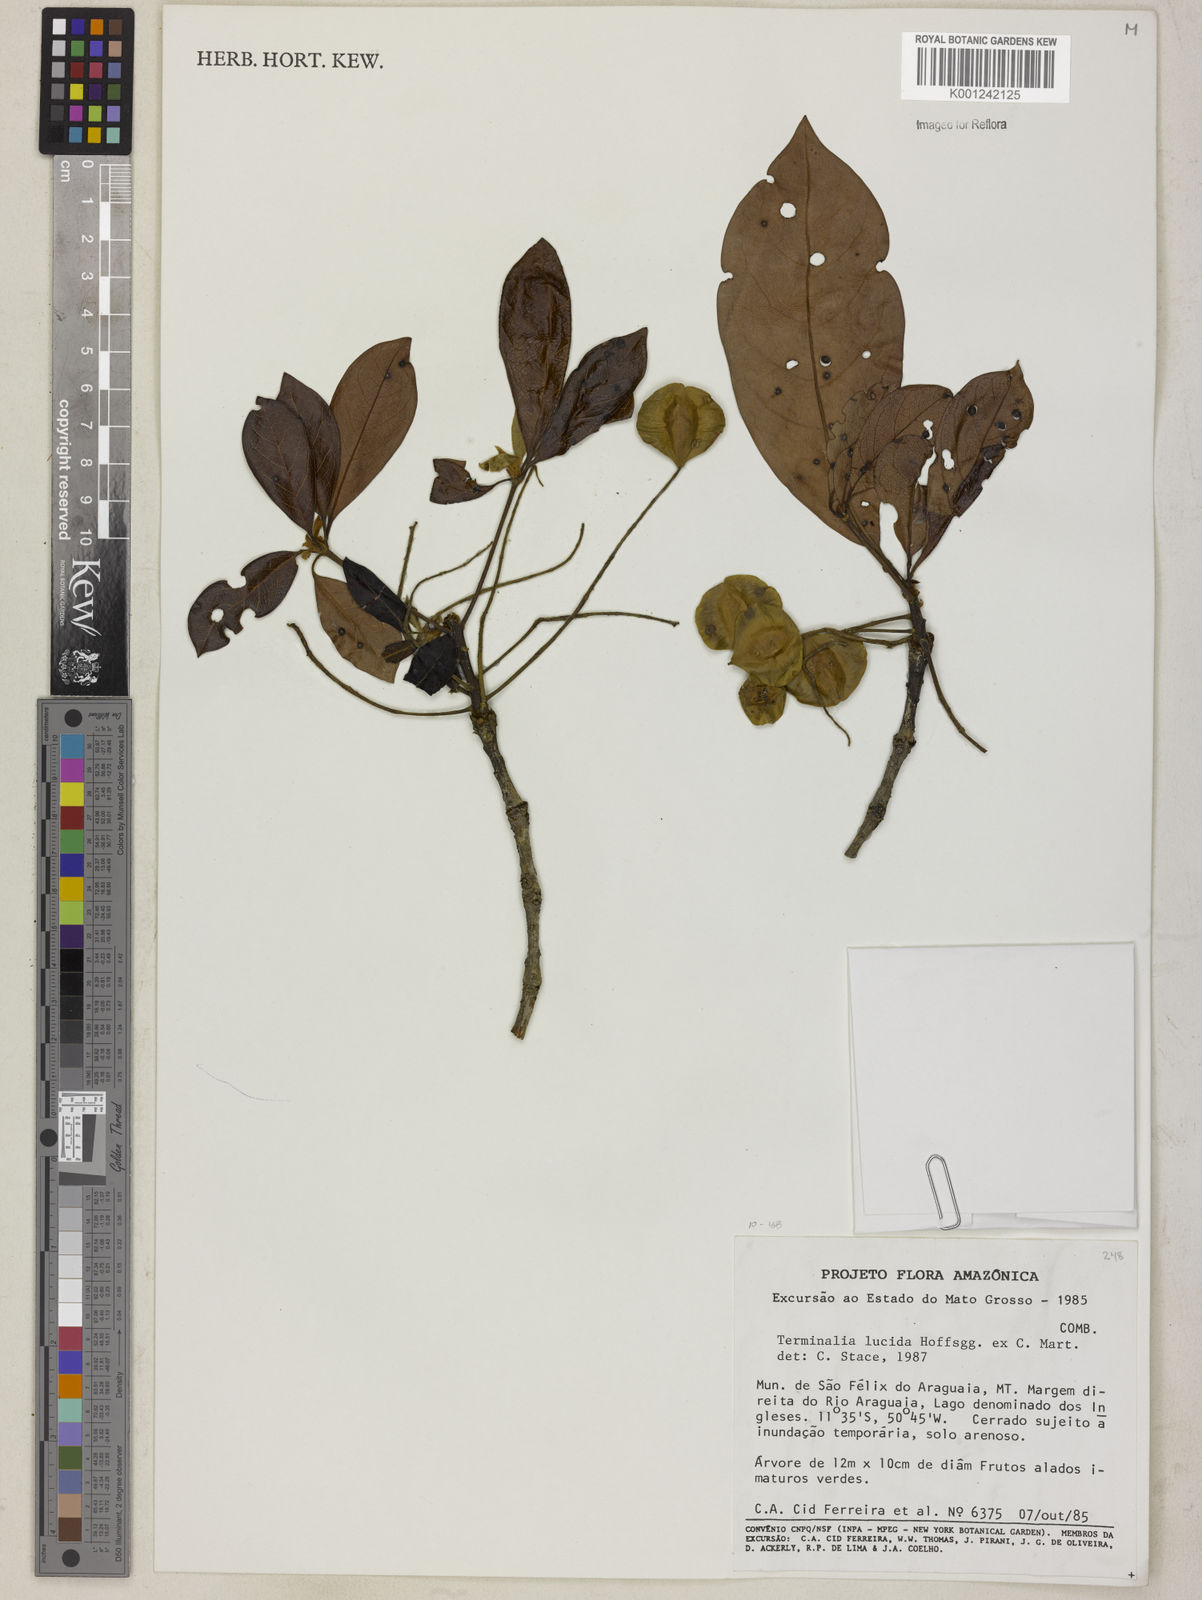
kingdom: Plantae
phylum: Tracheophyta
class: Magnoliopsida
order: Myrtales
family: Combretaceae
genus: Terminalia
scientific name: Terminalia lucida
